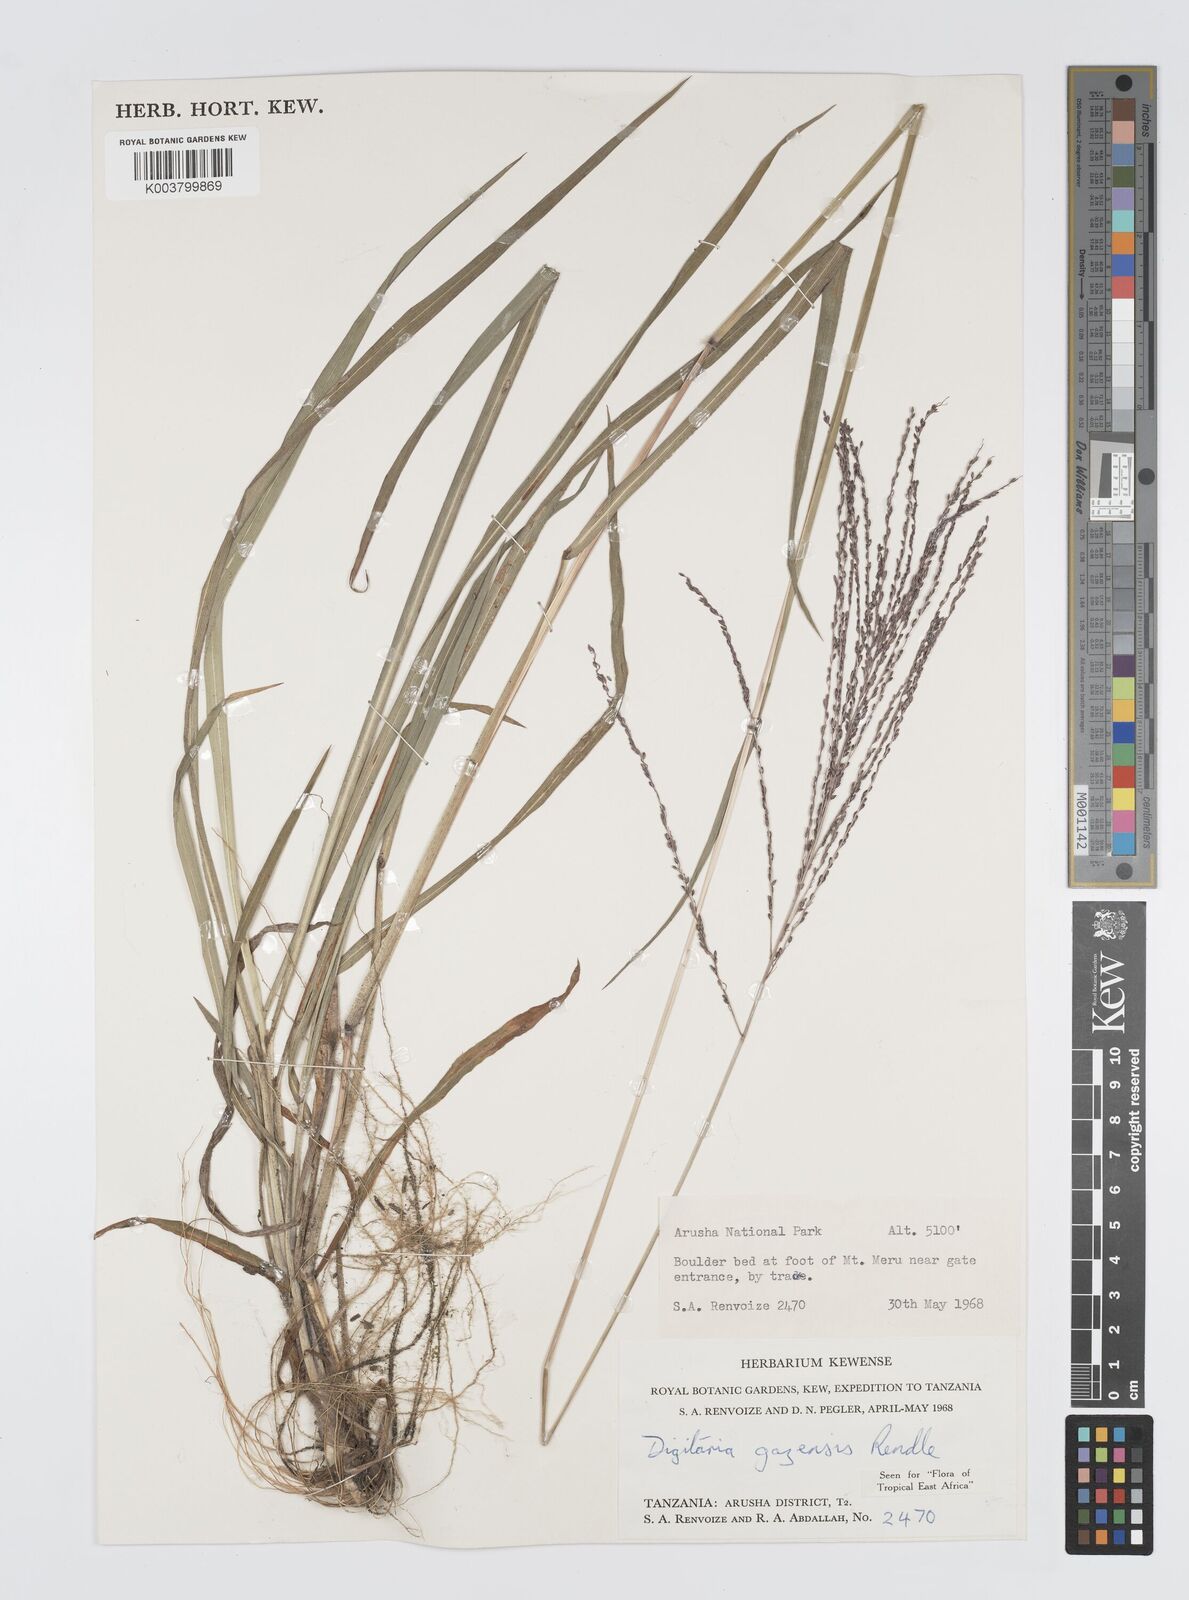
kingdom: Plantae
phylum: Tracheophyta
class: Liliopsida
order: Poales
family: Poaceae
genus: Digitaria
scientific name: Digitaria gazensis
